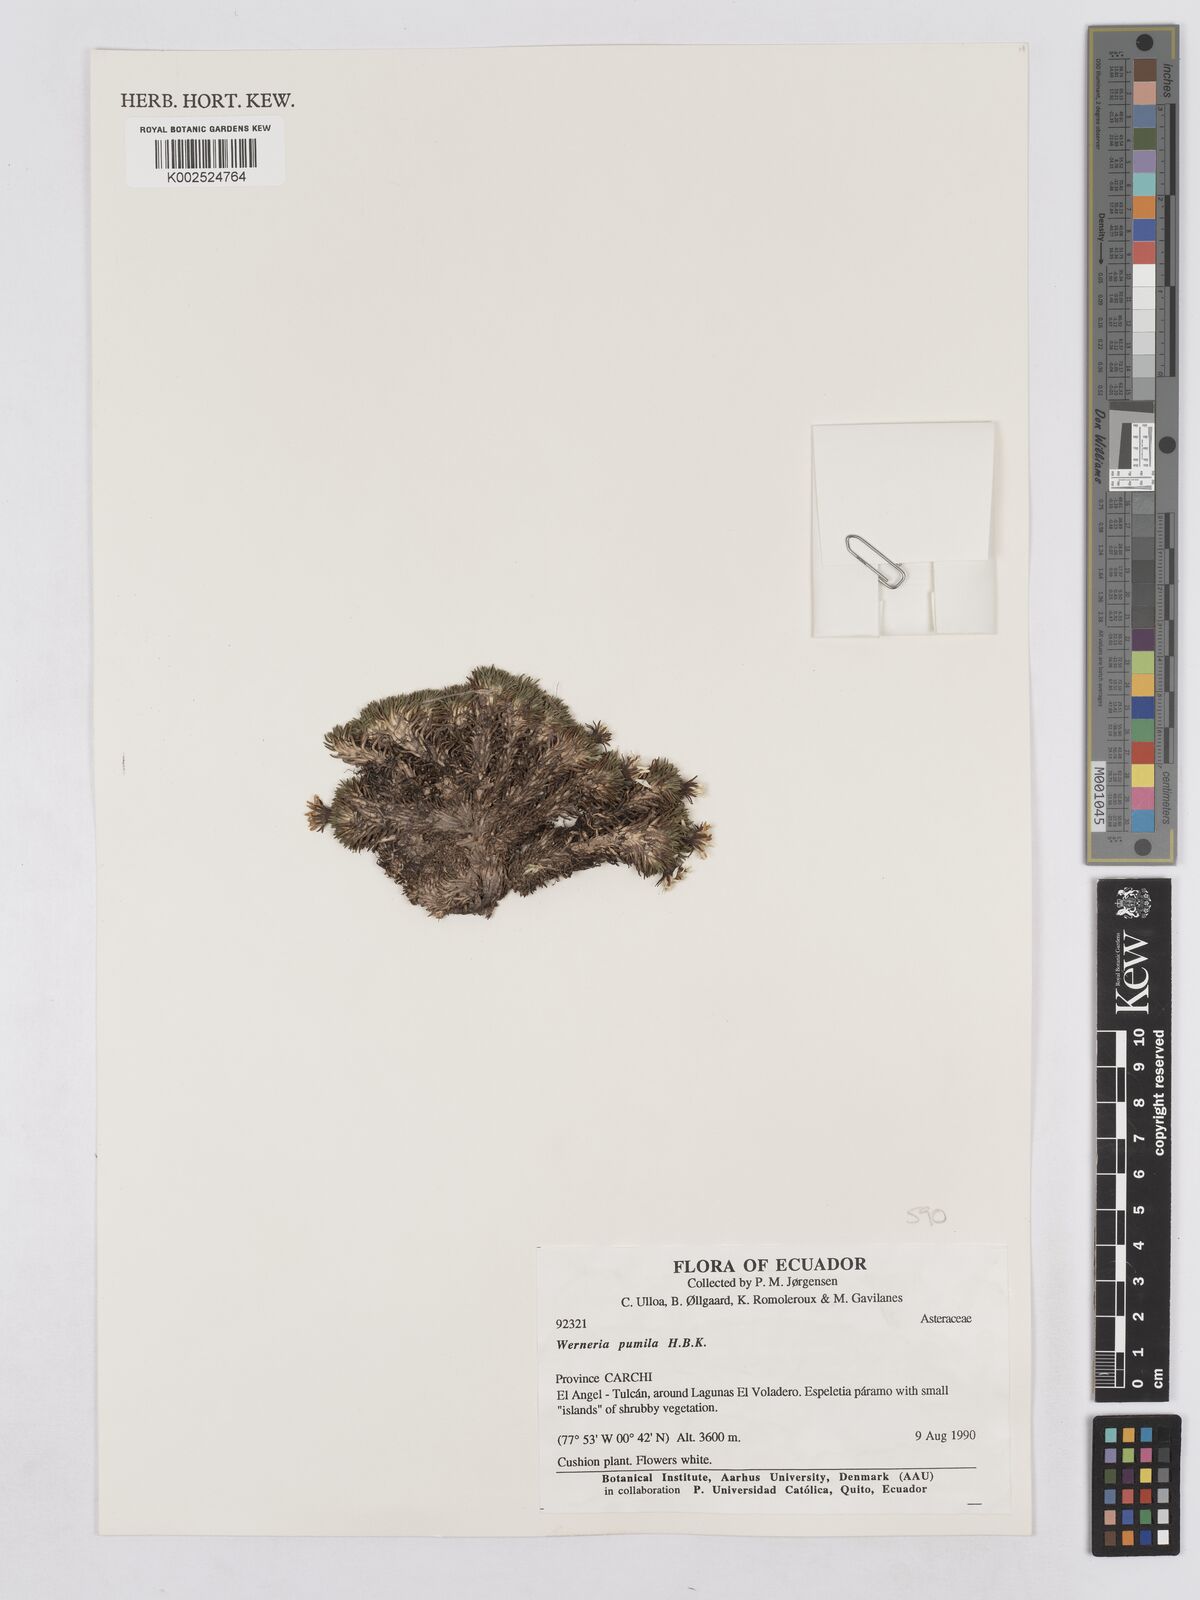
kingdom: Plantae
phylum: Tracheophyta
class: Magnoliopsida
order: Asterales
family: Asteraceae
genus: Rockhausenia
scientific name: Rockhausenia pumila
